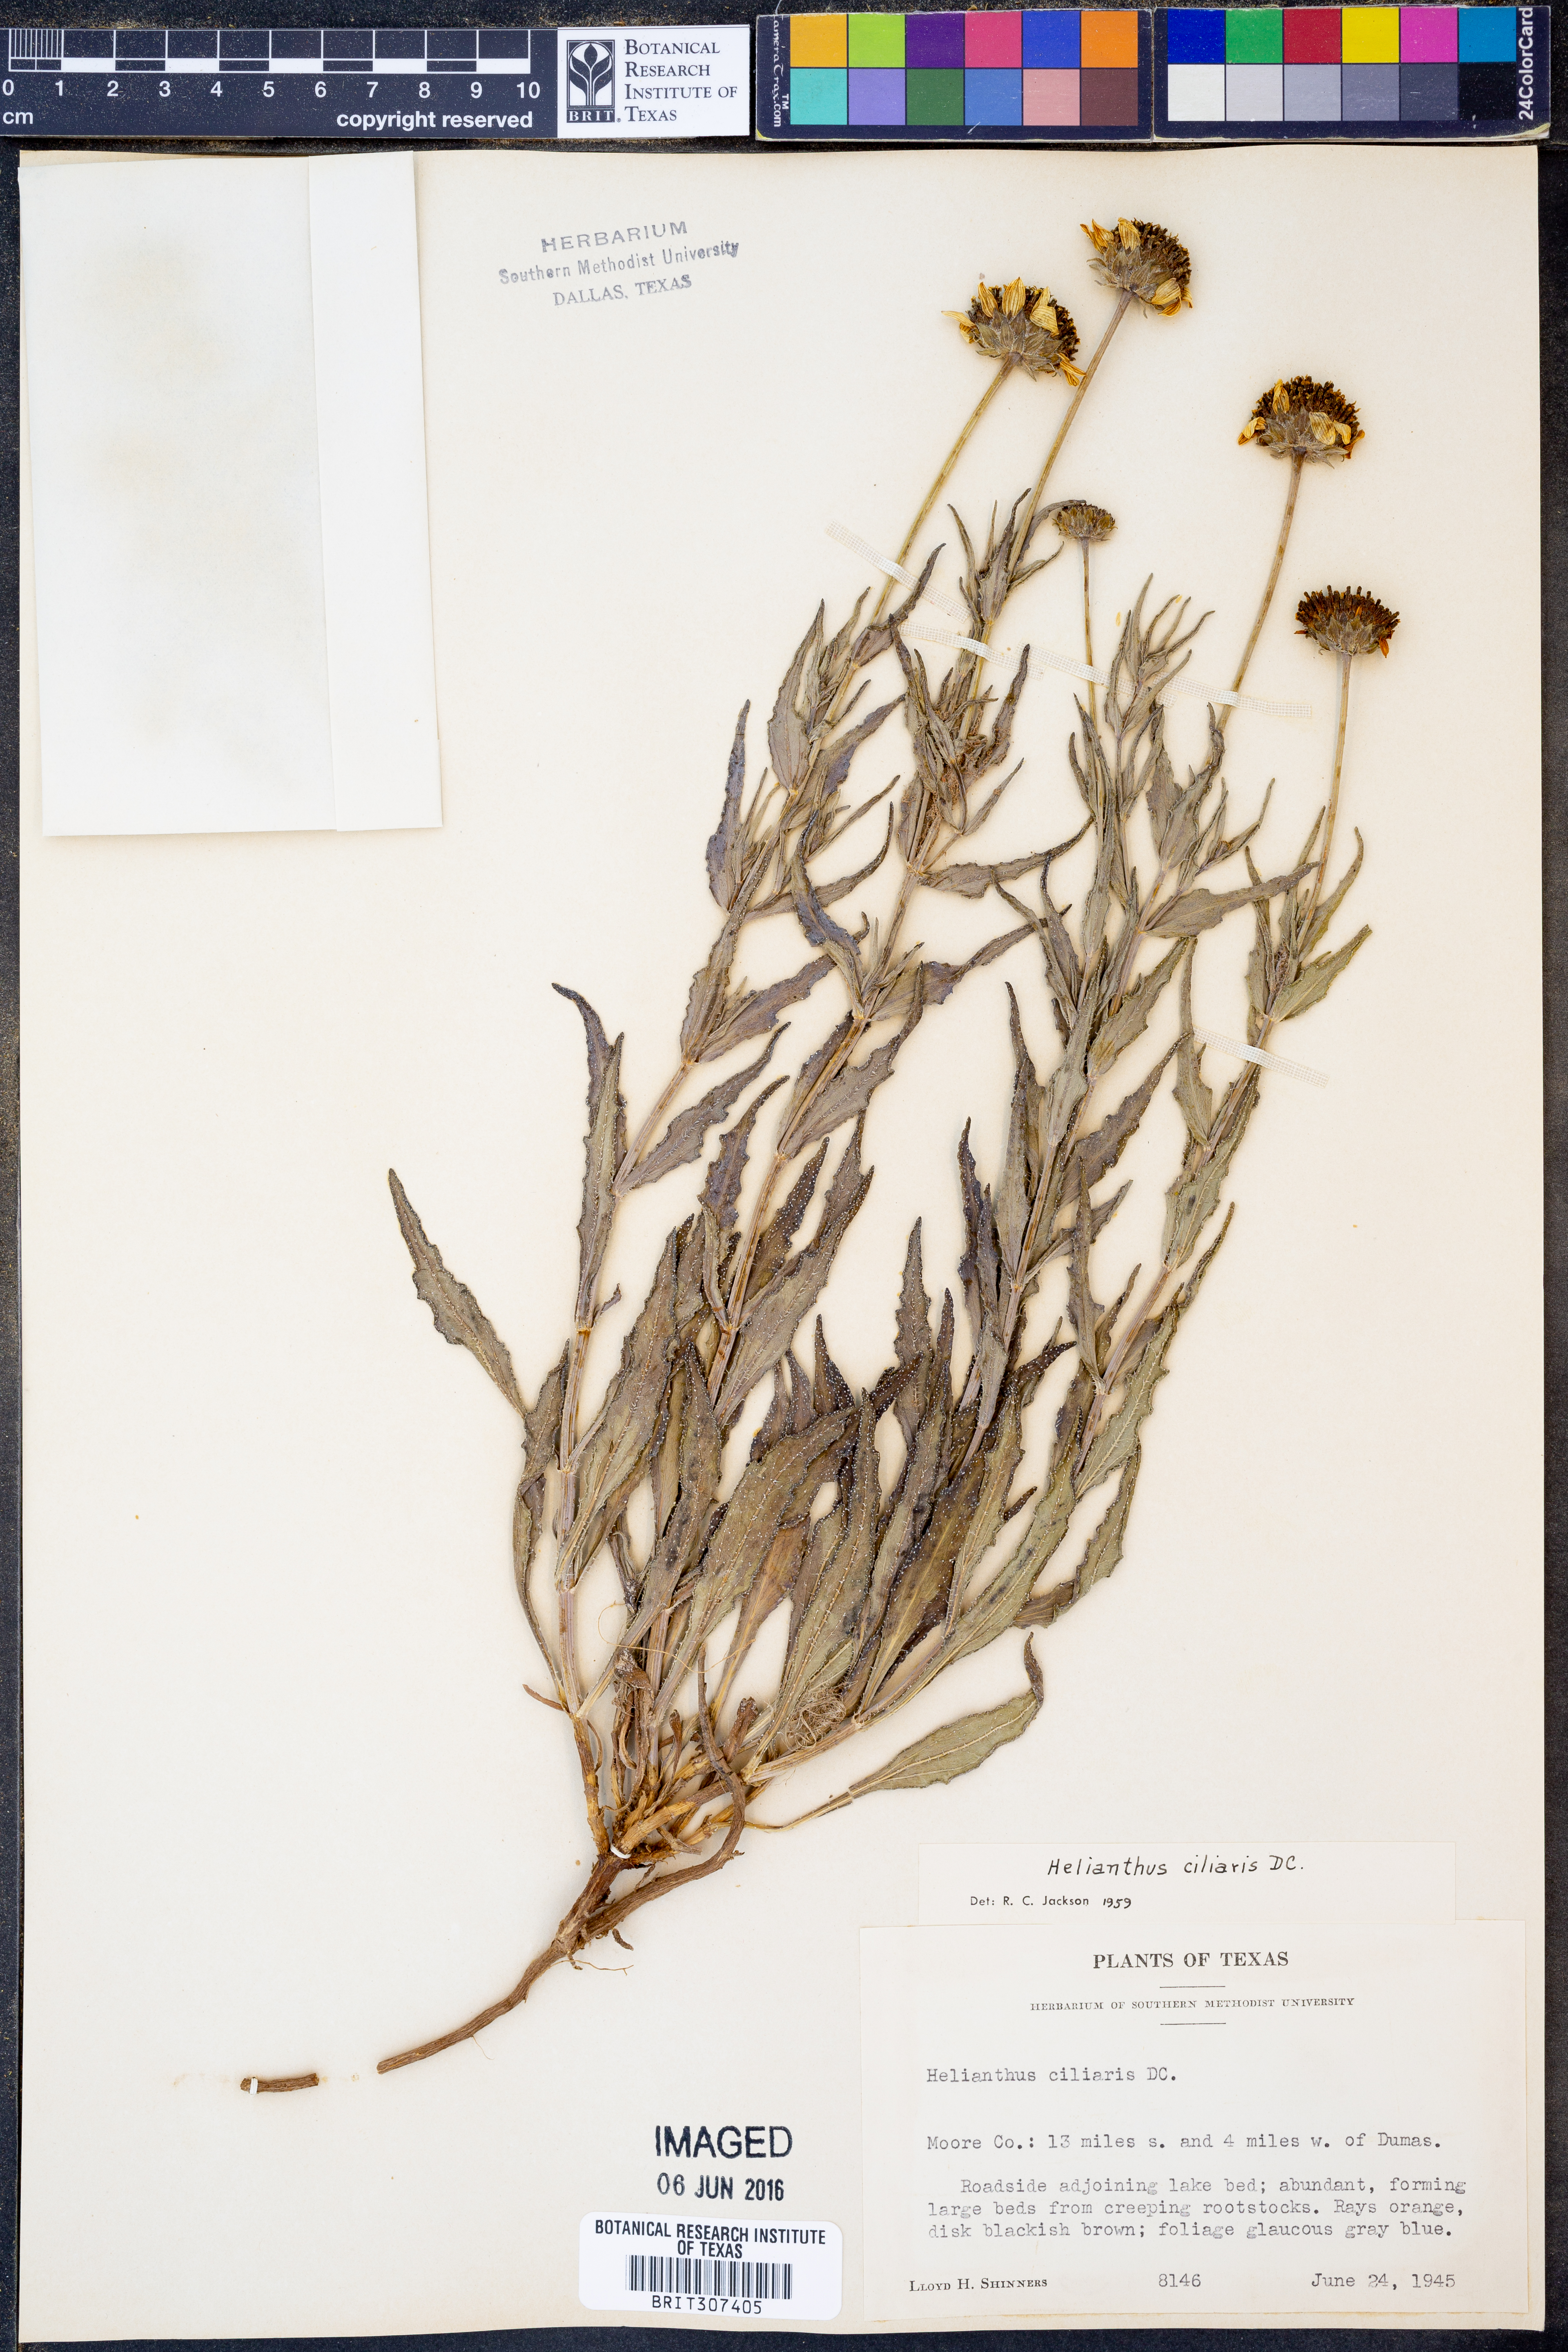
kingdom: Plantae
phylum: Tracheophyta
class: Magnoliopsida
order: Asterales
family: Asteraceae
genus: Helianthus
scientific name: Helianthus ciliaris
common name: Texas blueweed
